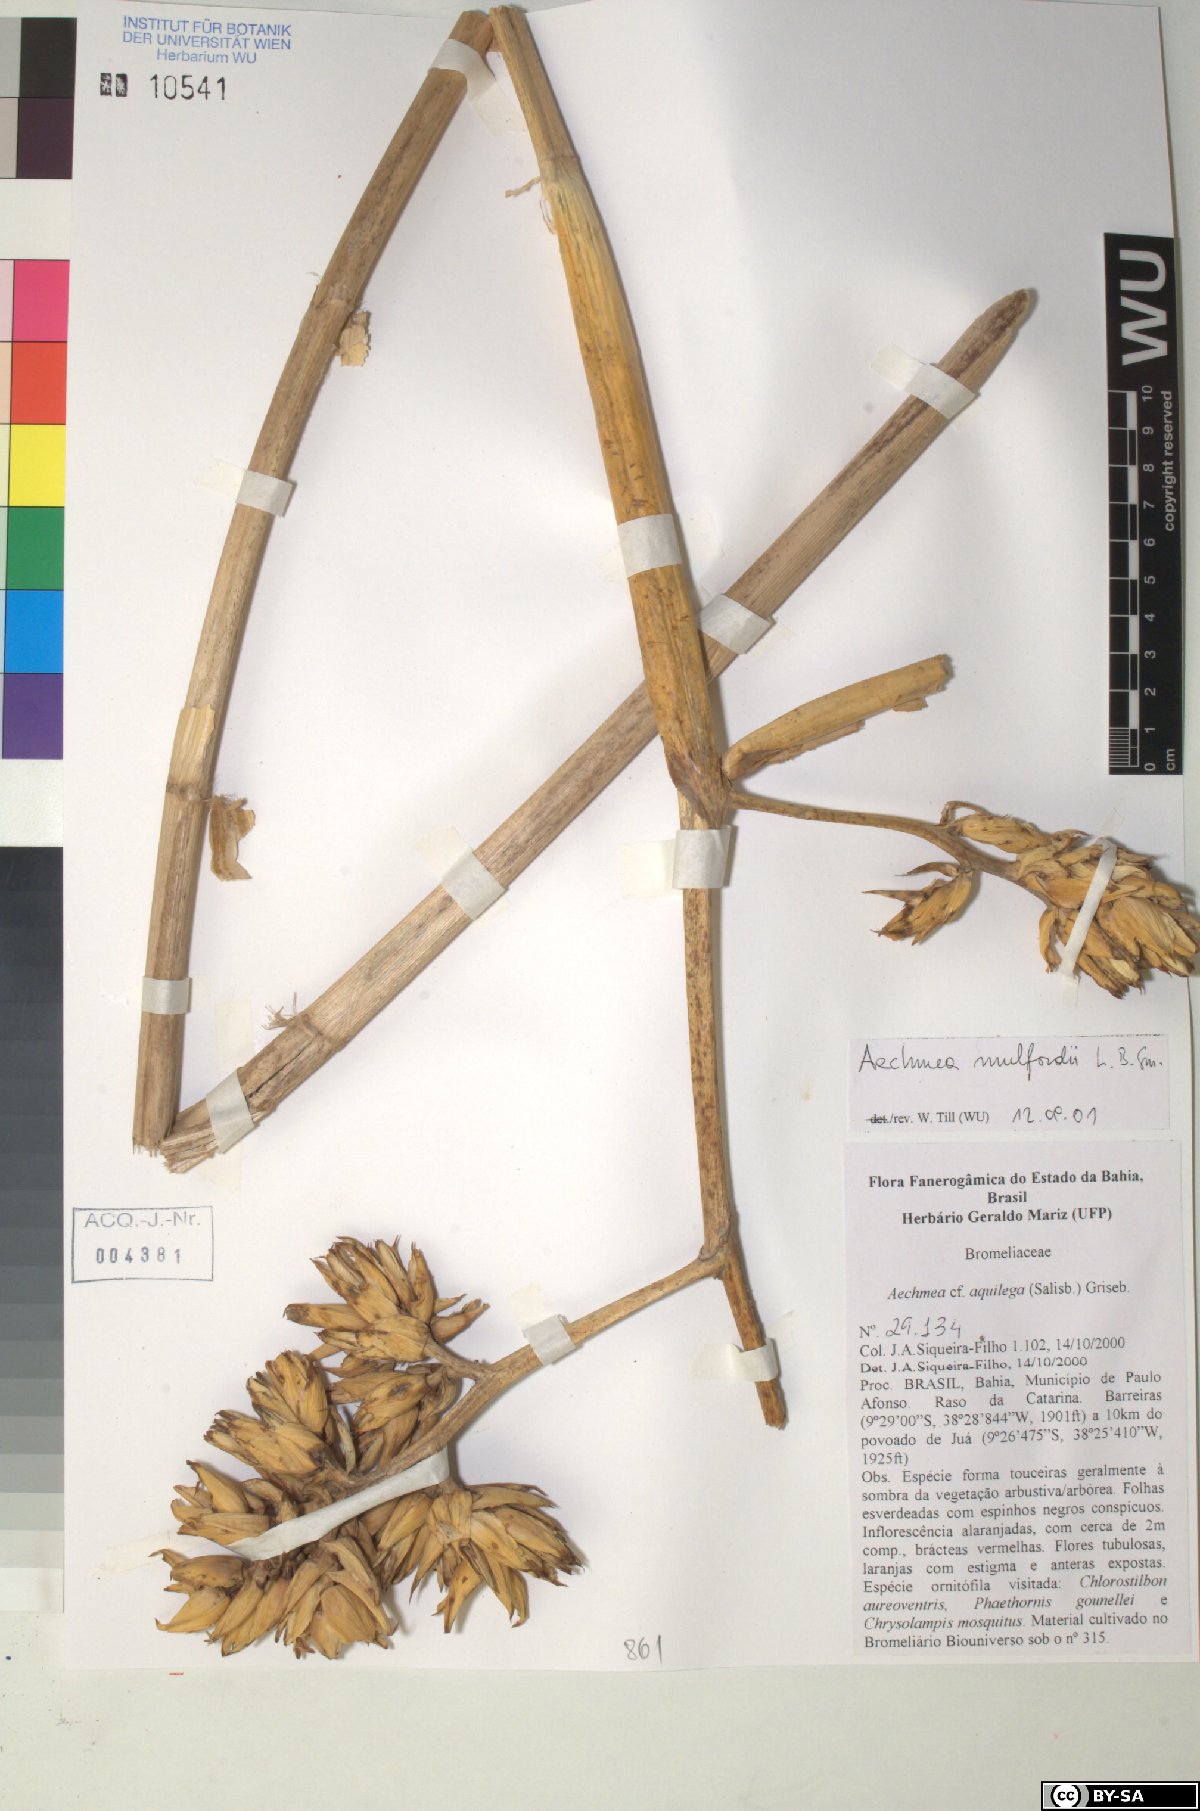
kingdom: Plantae
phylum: Tracheophyta
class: Liliopsida
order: Poales
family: Bromeliaceae
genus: Aechmea
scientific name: Aechmea aquilega
